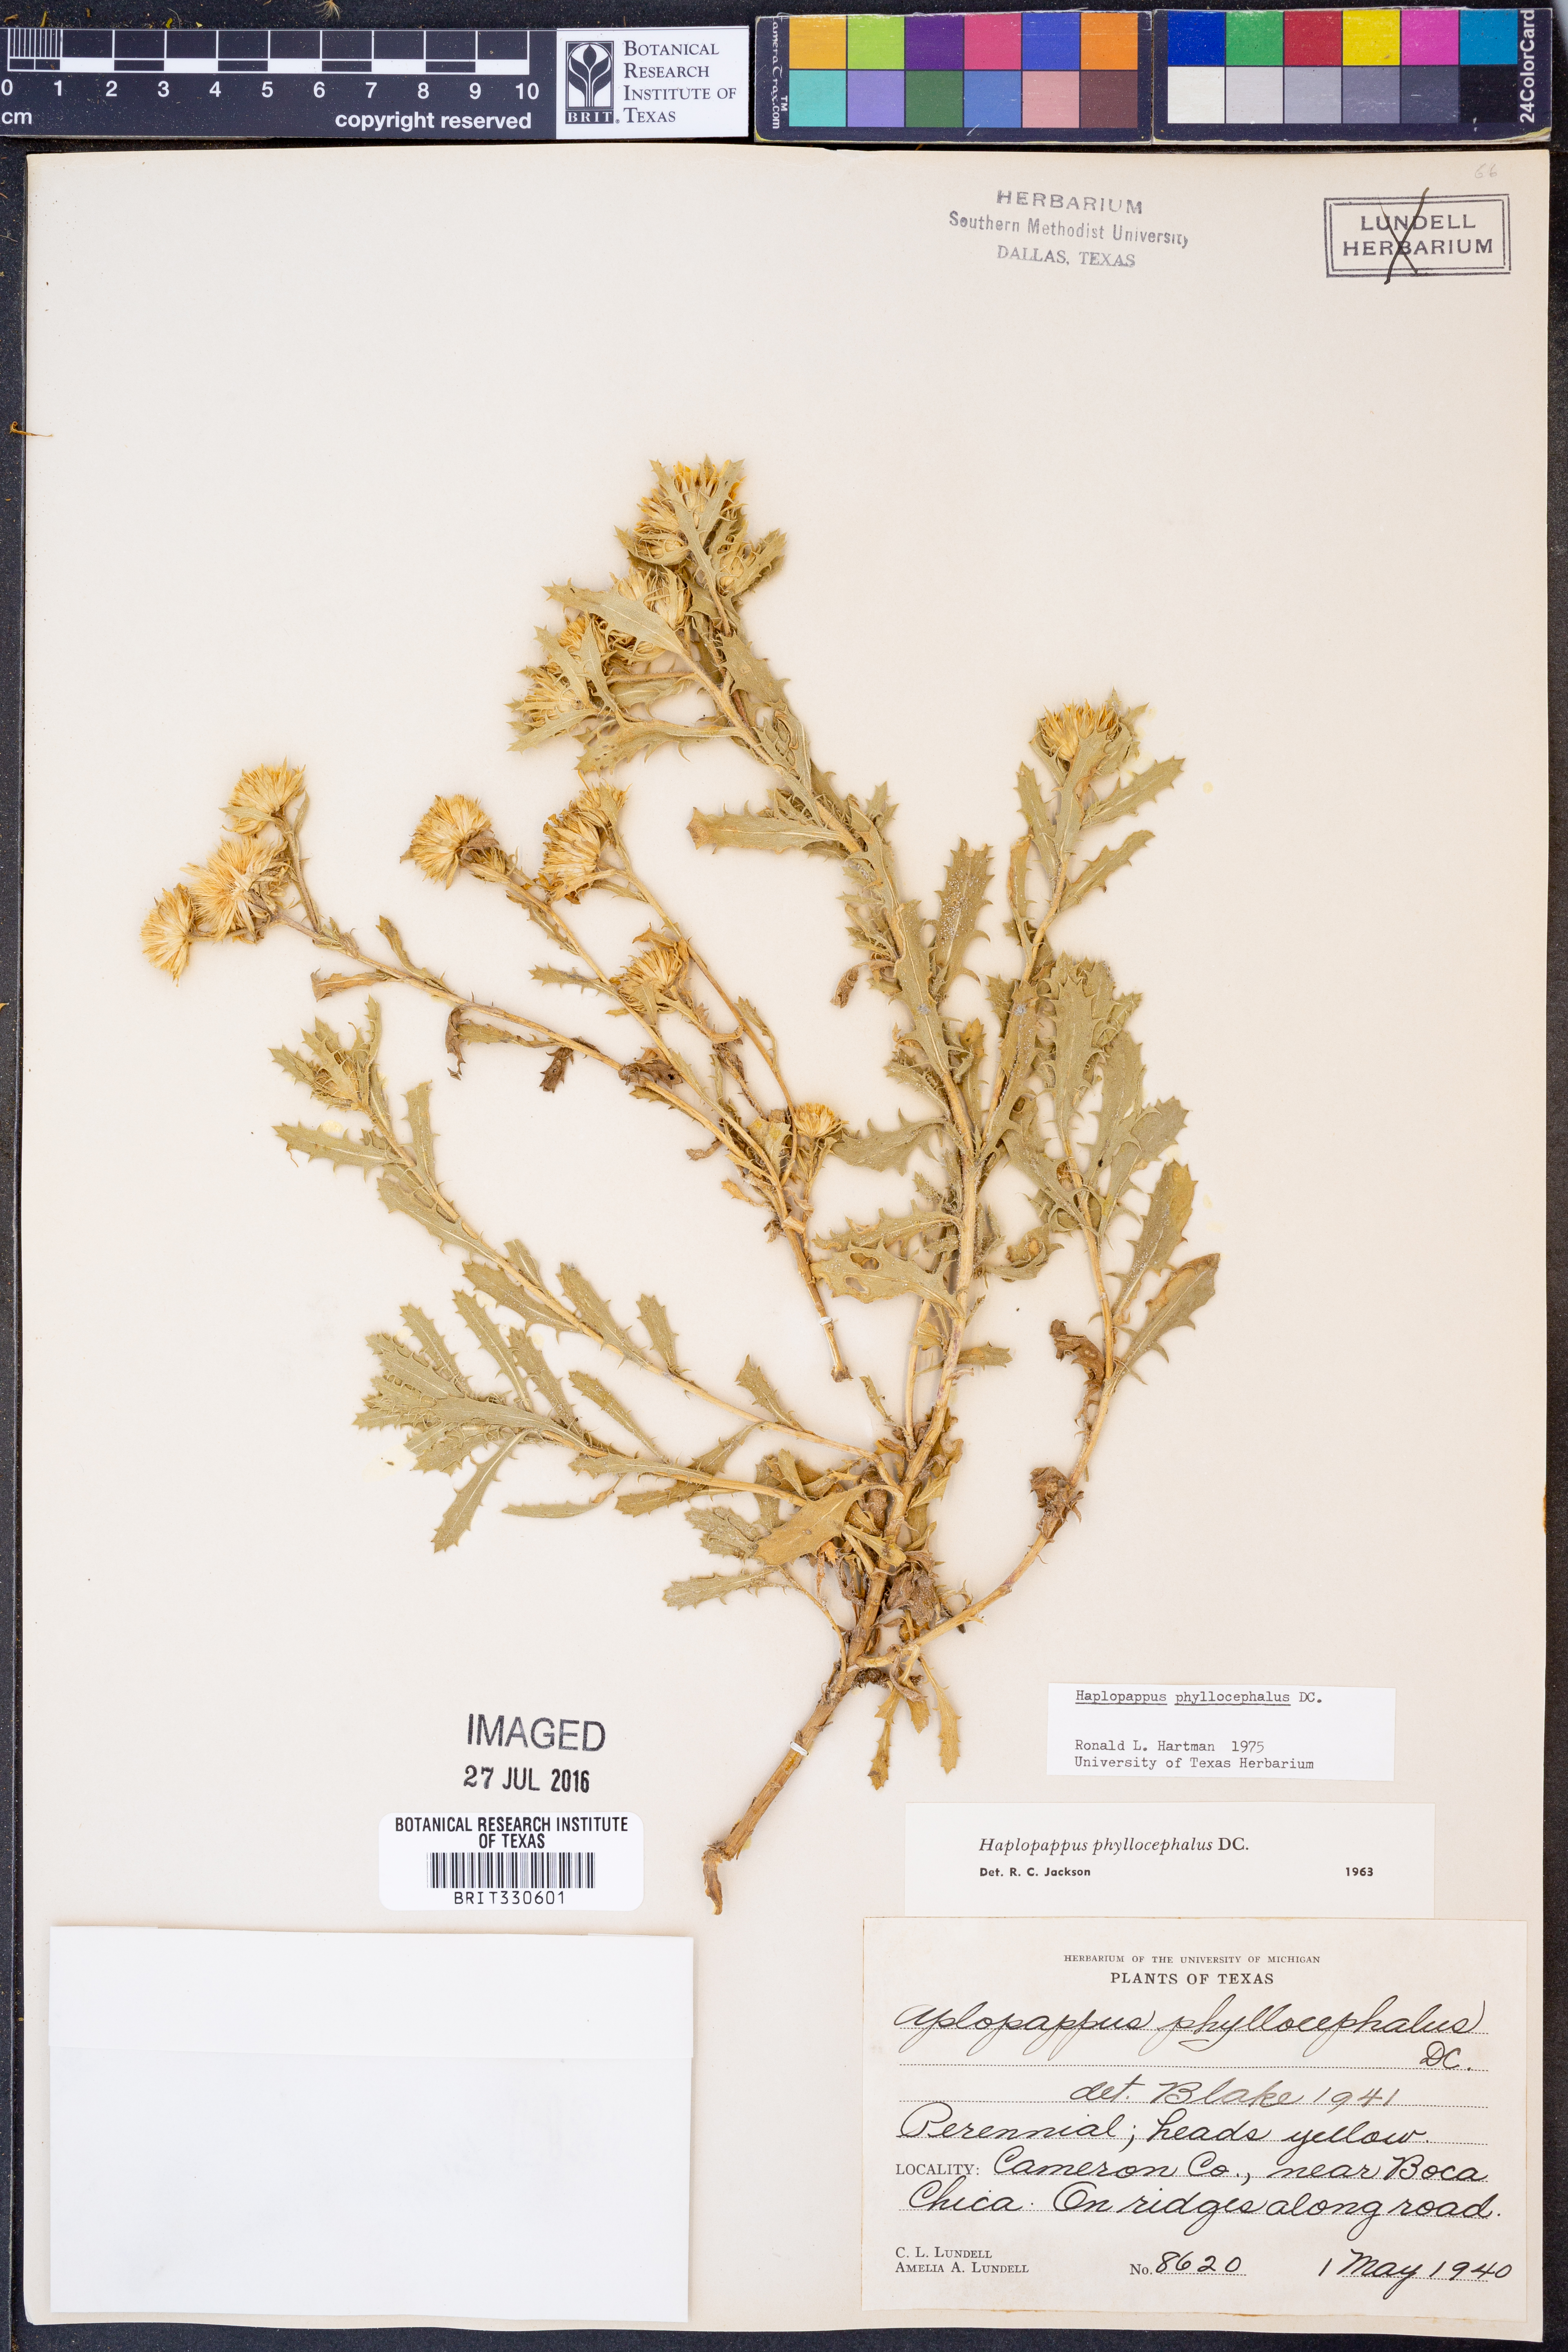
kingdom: Plantae
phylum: Tracheophyta
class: Magnoliopsida
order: Asterales
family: Asteraceae
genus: Rayjacksonia
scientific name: Rayjacksonia phyllocephala
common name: Gulf coast camphor daisy
